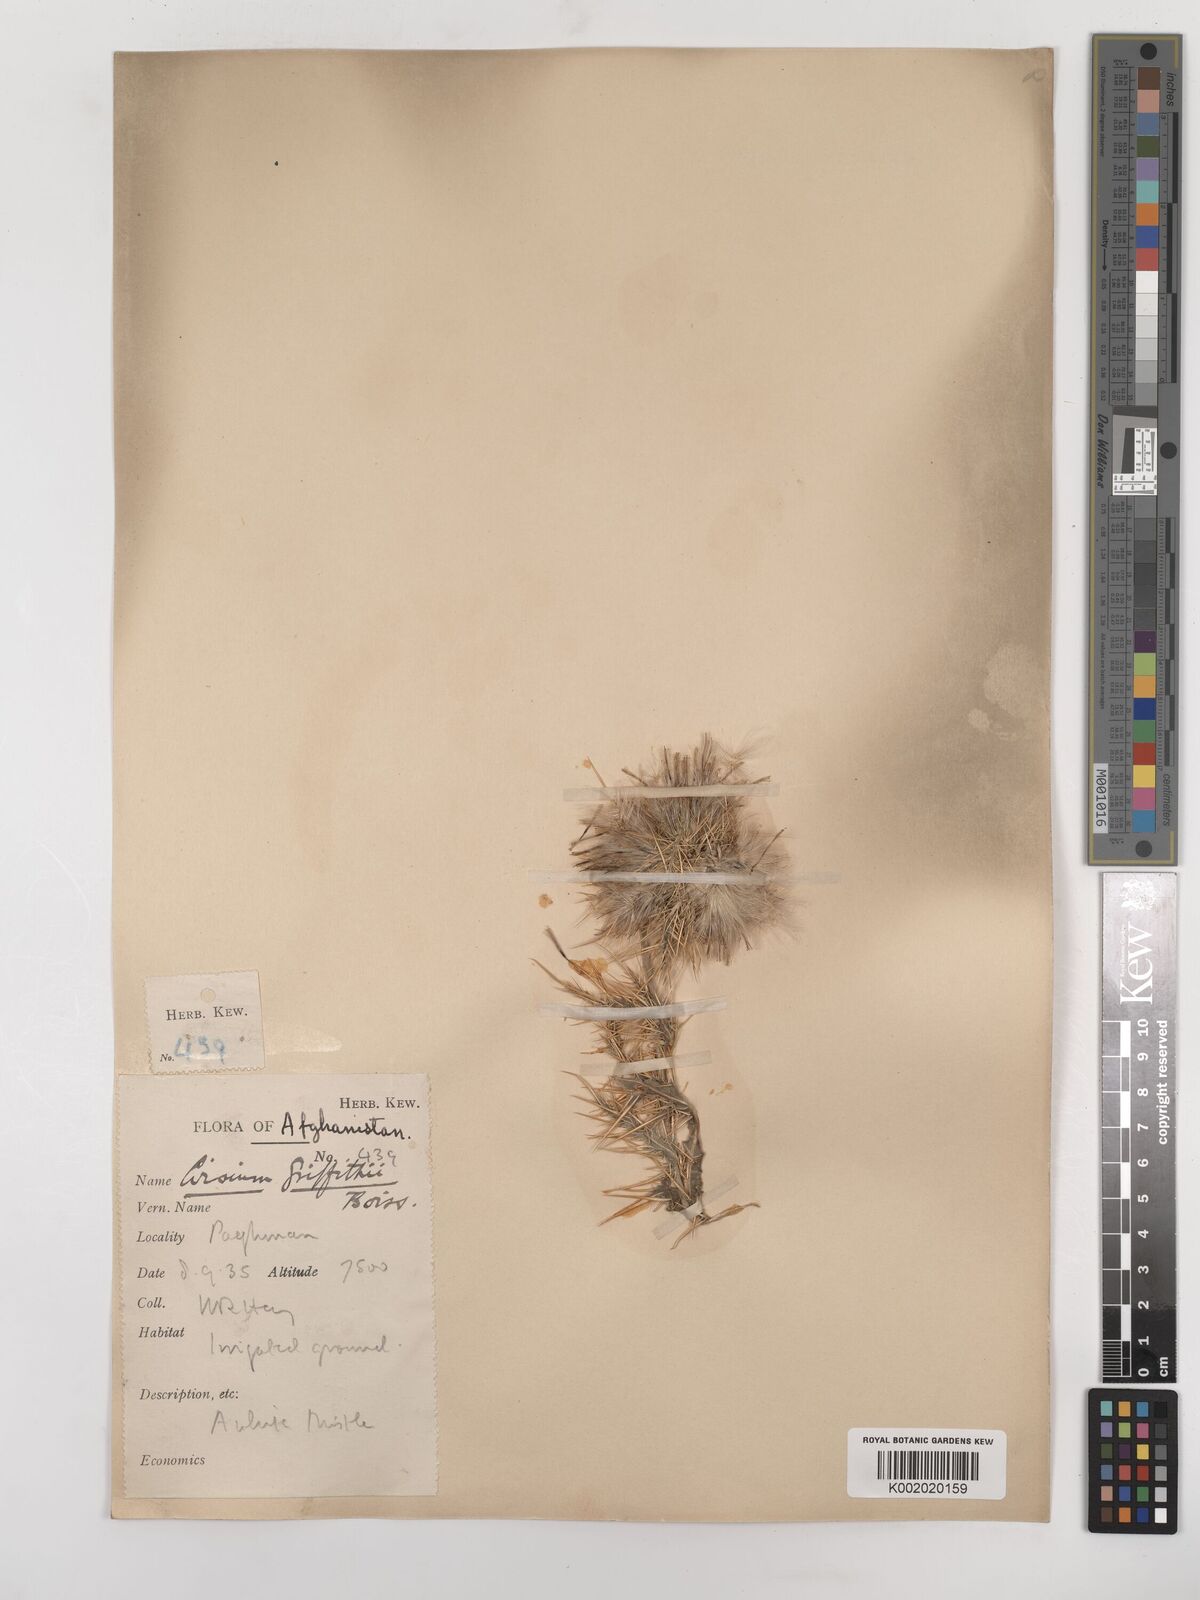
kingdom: Plantae
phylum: Tracheophyta
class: Magnoliopsida
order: Asterales
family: Asteraceae
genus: Lophiolepis
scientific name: Lophiolepis griffithii
